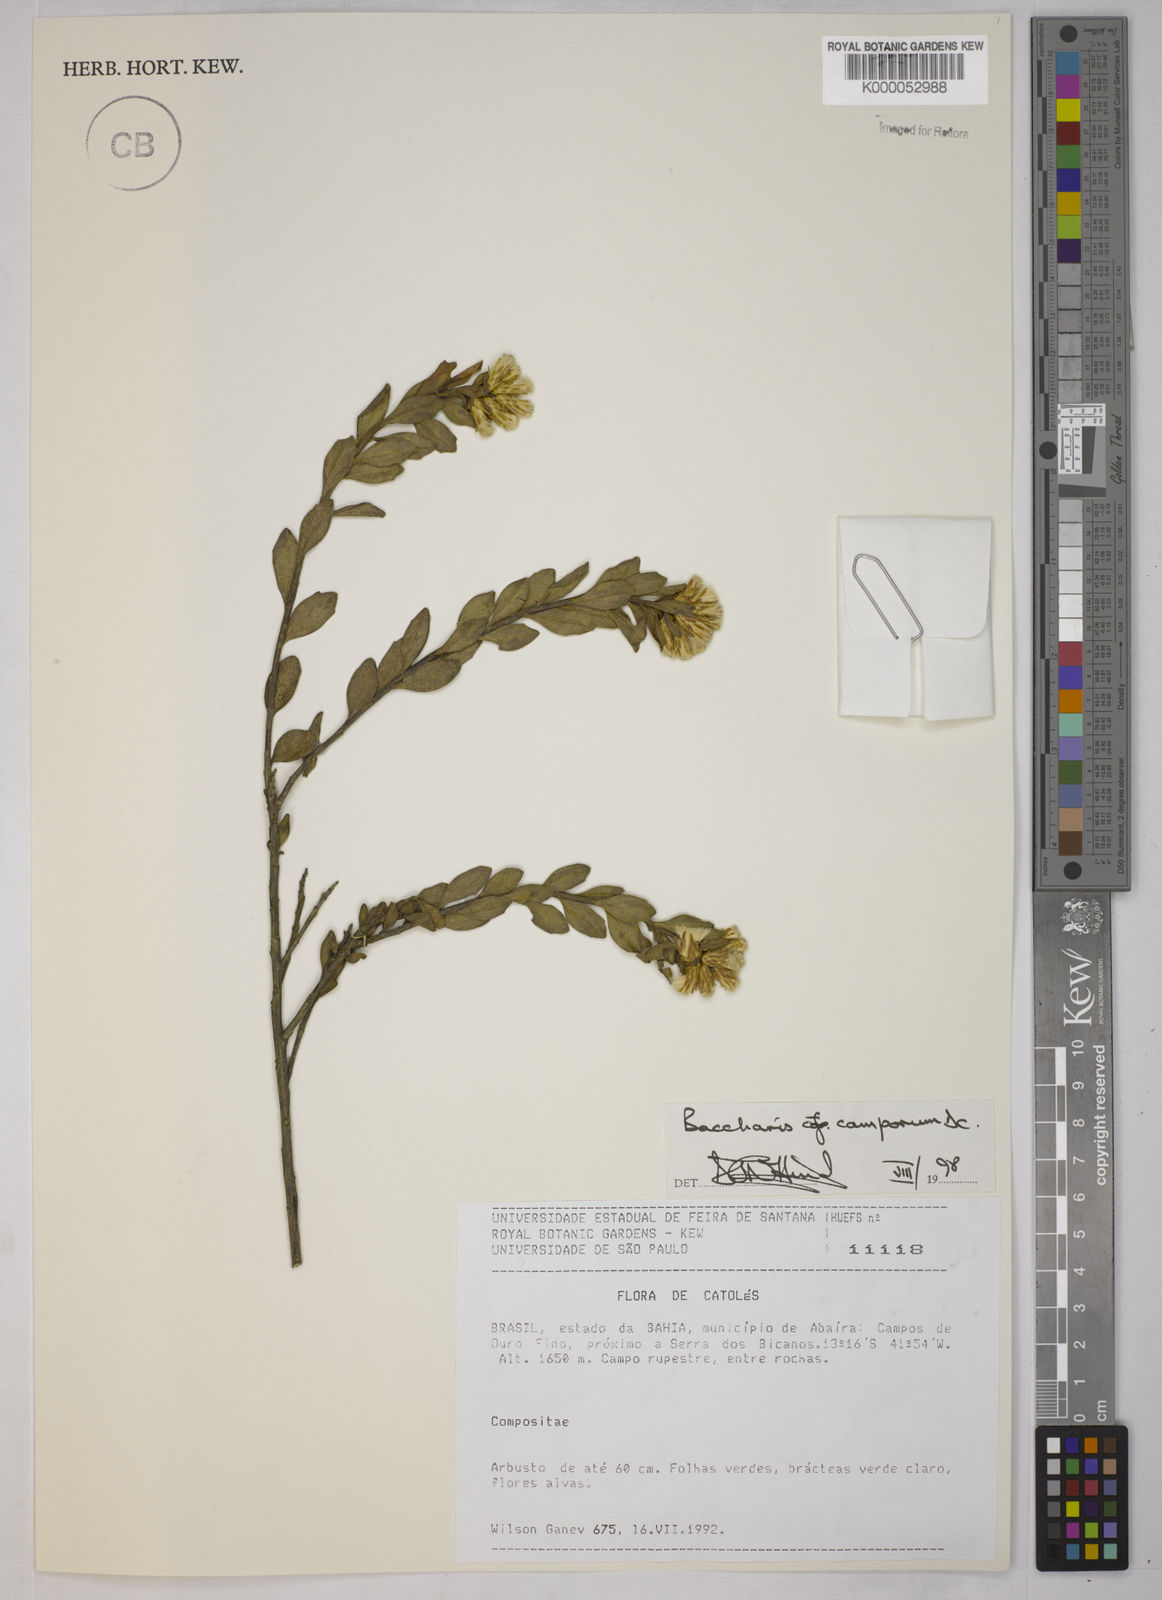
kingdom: Plantae
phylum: Tracheophyta
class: Magnoliopsida
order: Asterales
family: Asteraceae
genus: Baccharis
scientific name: Baccharis camporum
